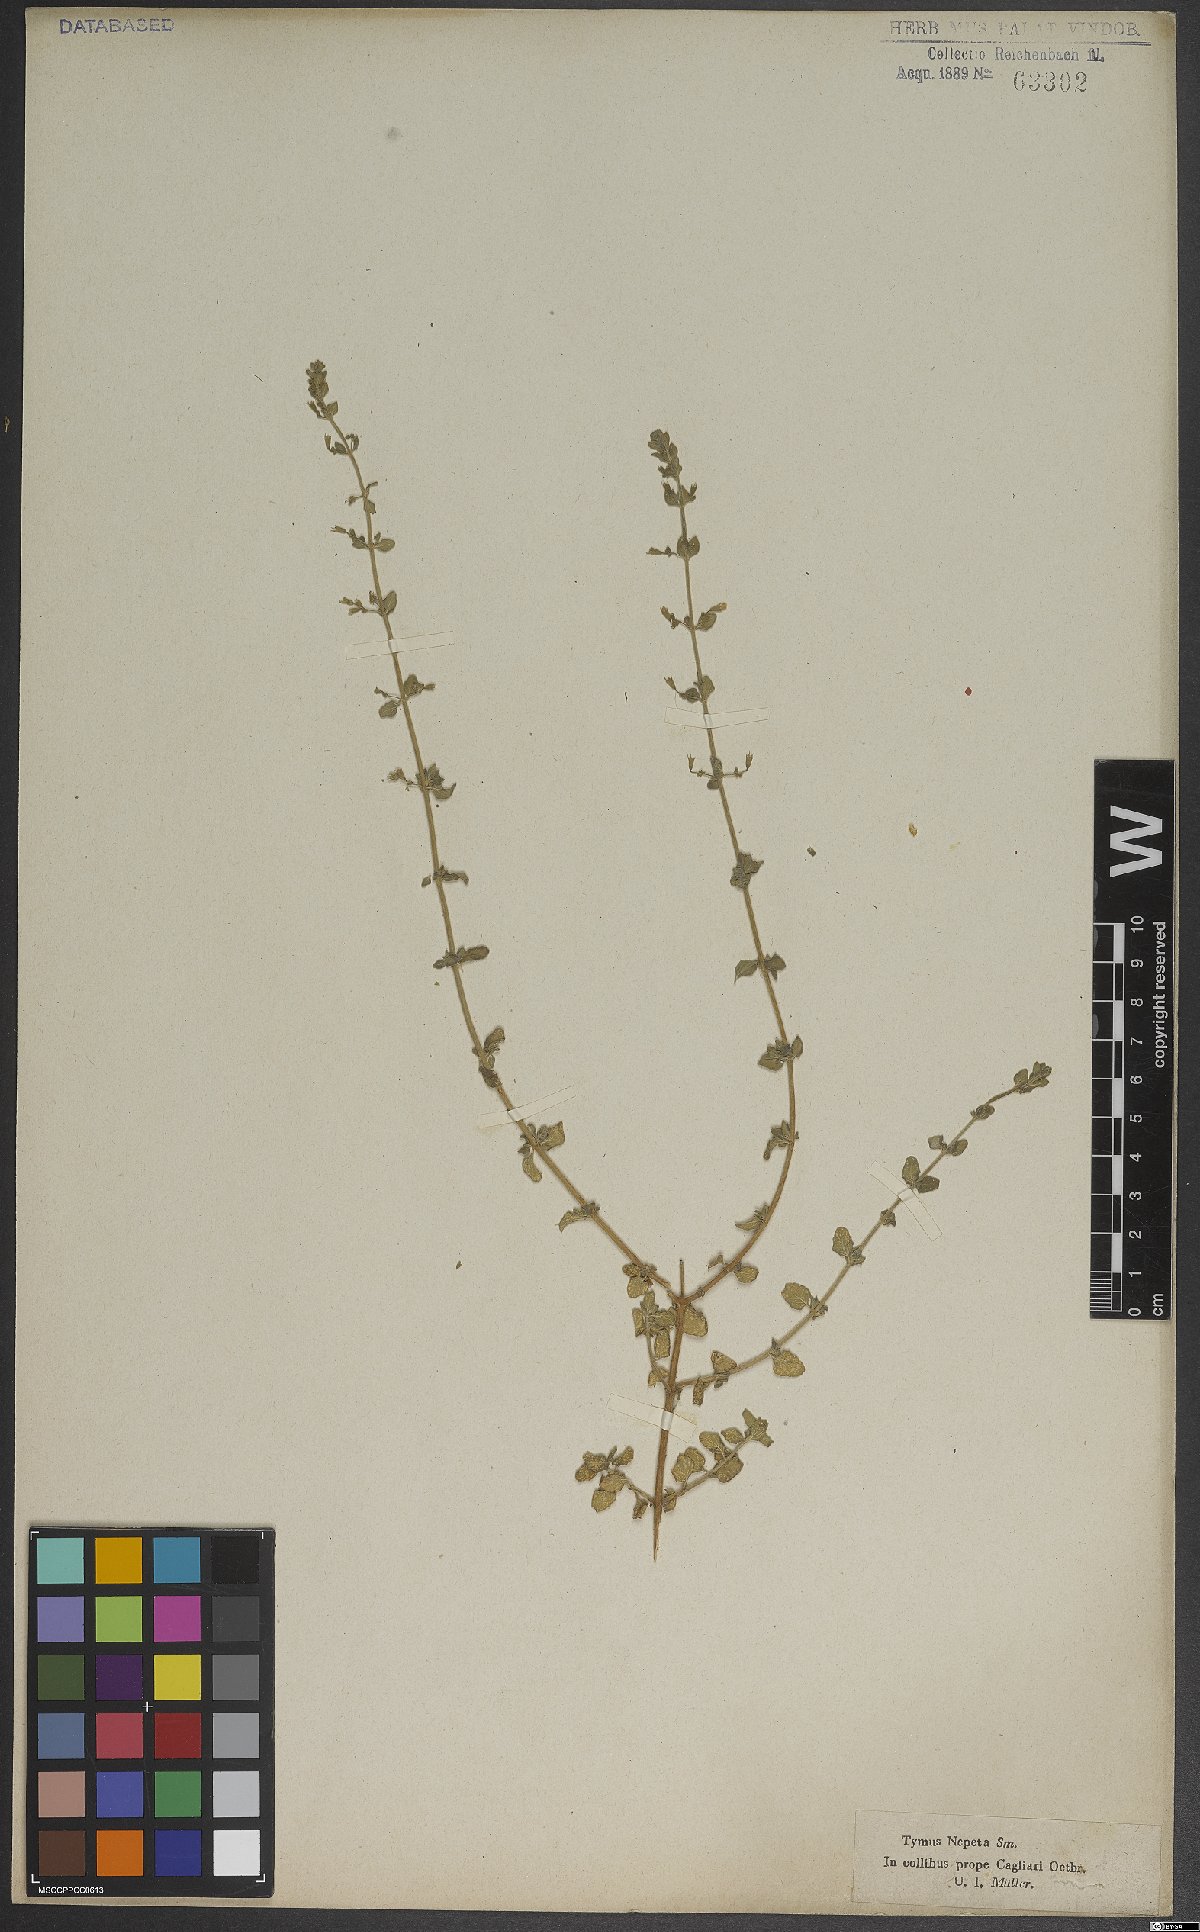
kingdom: Plantae
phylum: Tracheophyta
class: Magnoliopsida
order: Lamiales
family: Lamiaceae
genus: Thymus
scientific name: Thymus
